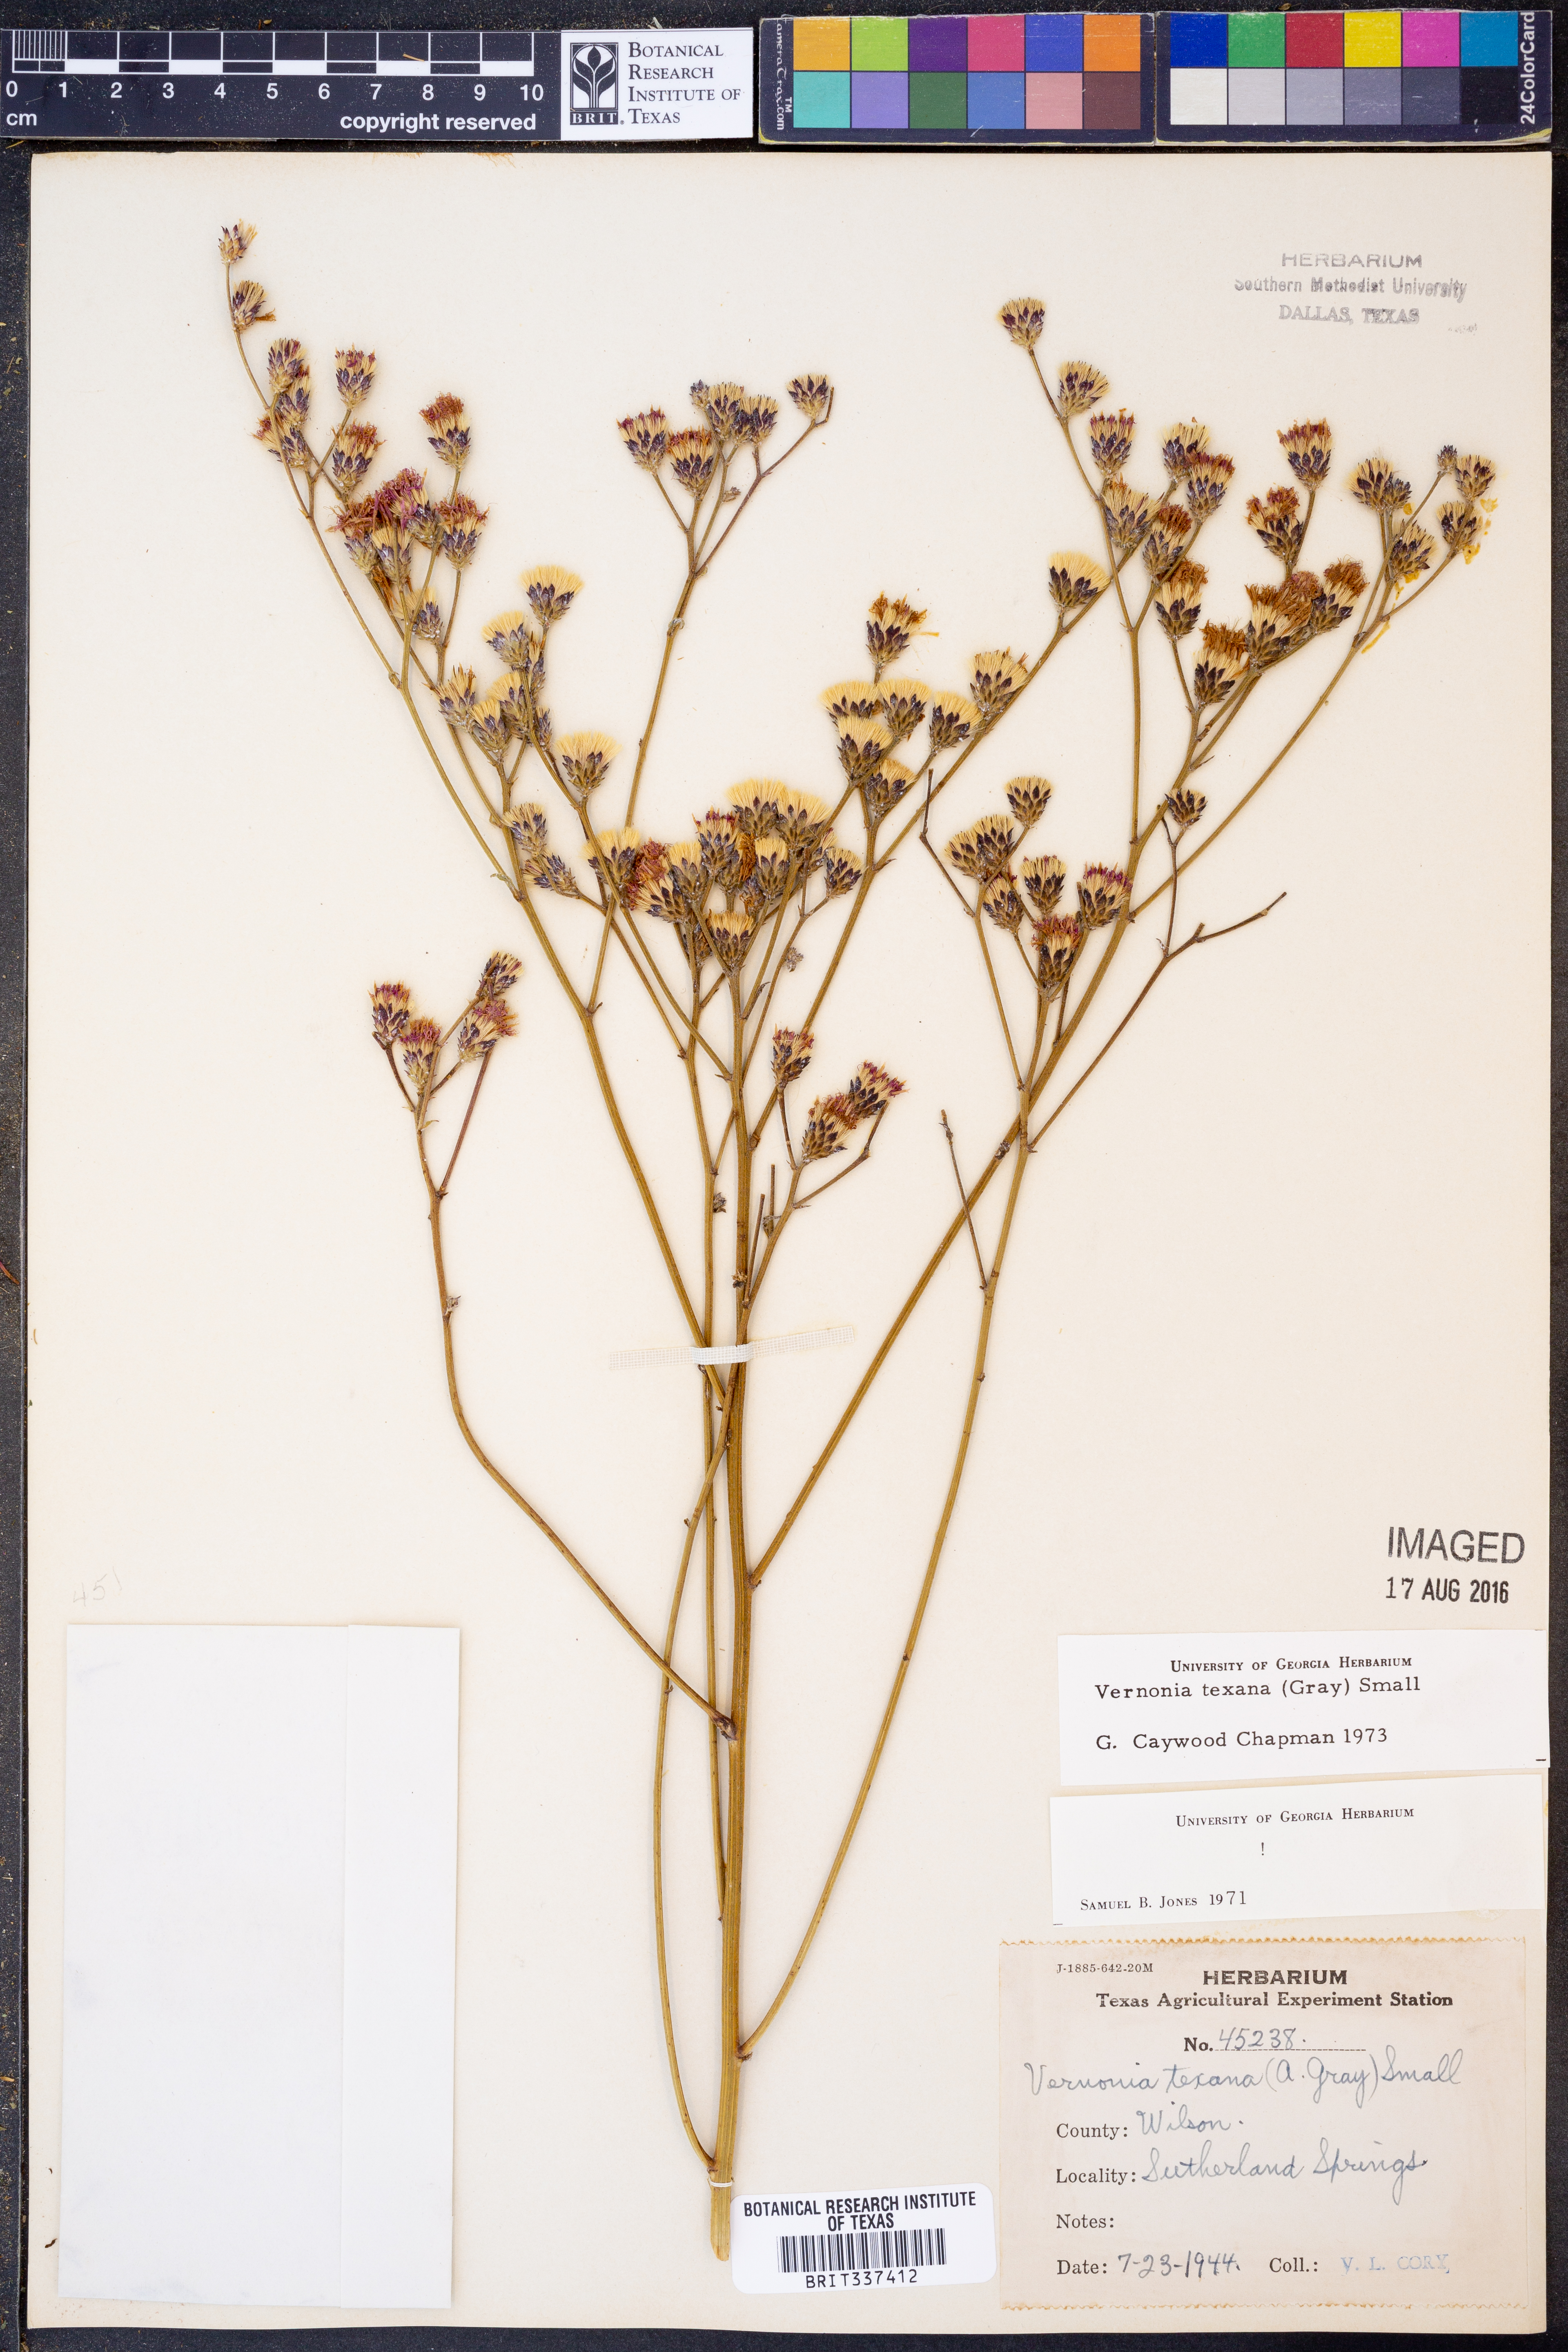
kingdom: Plantae
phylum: Tracheophyta
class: Magnoliopsida
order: Asterales
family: Asteraceae
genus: Vernonia
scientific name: Vernonia texana
